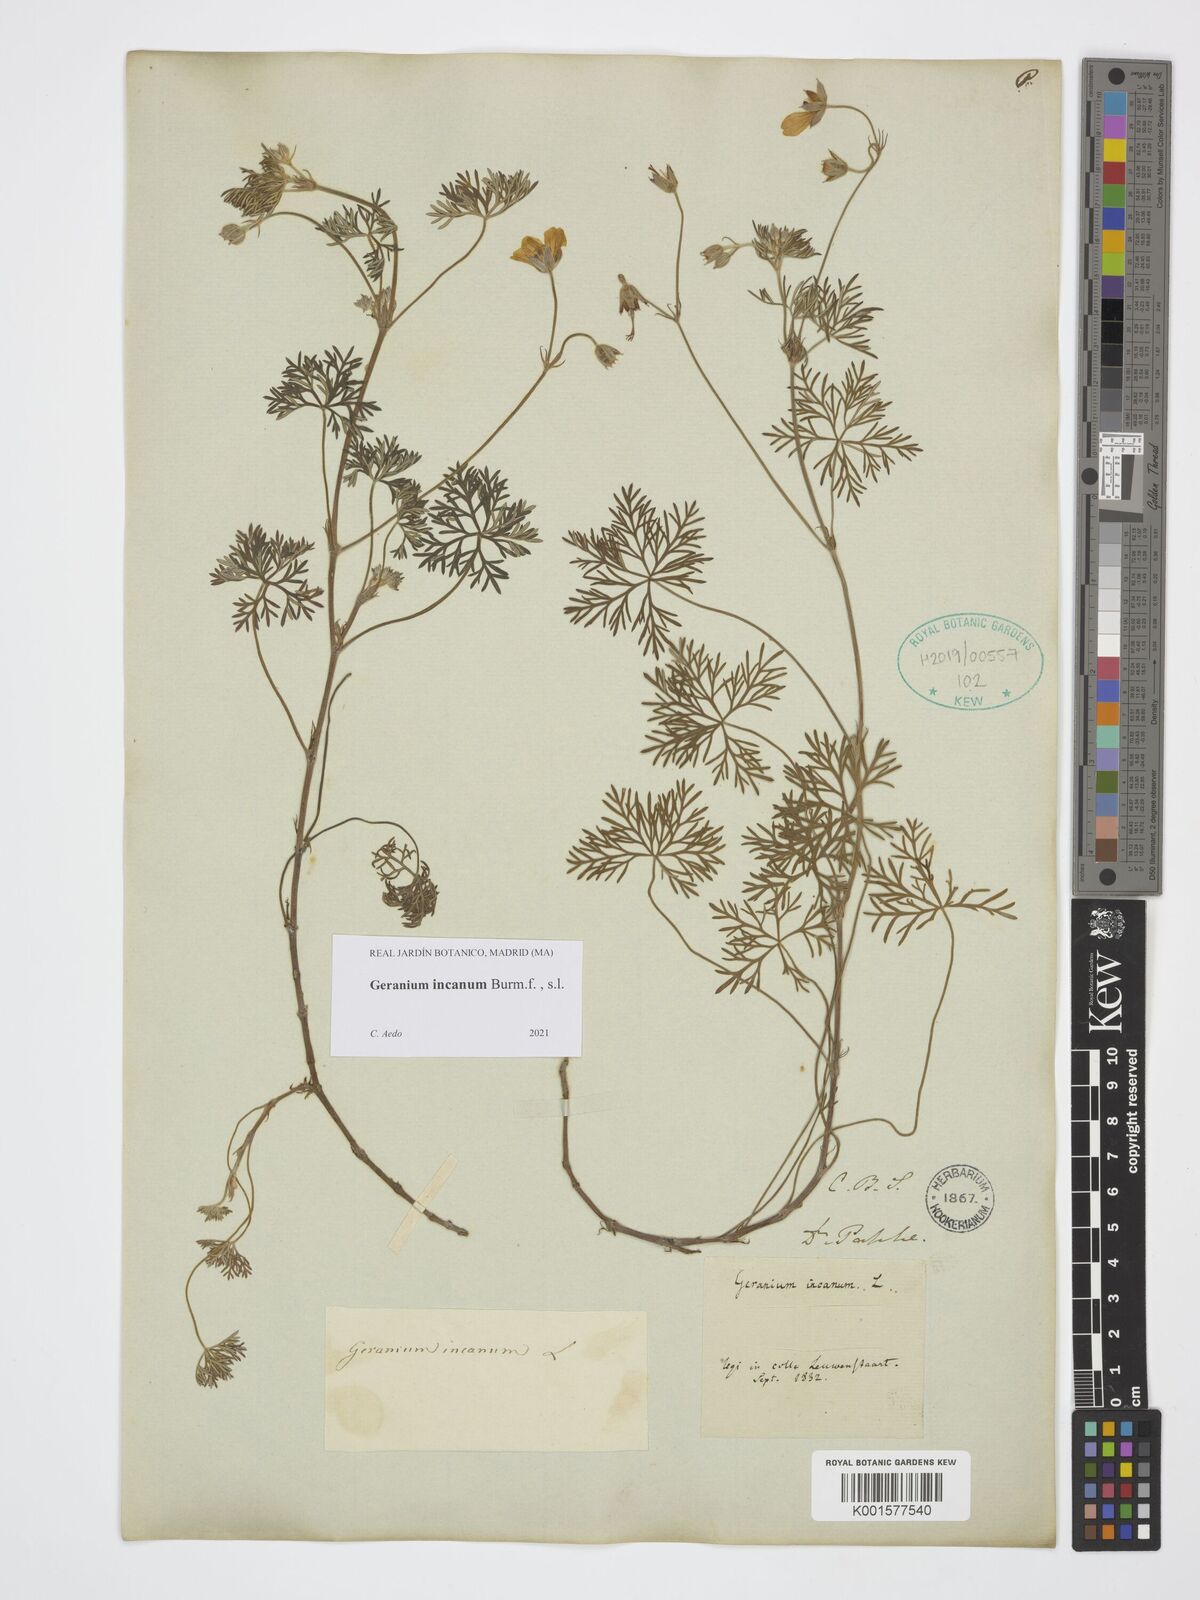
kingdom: Plantae
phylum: Tracheophyta
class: Magnoliopsida
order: Geraniales
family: Geraniaceae
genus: Geranium
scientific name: Geranium incanum
